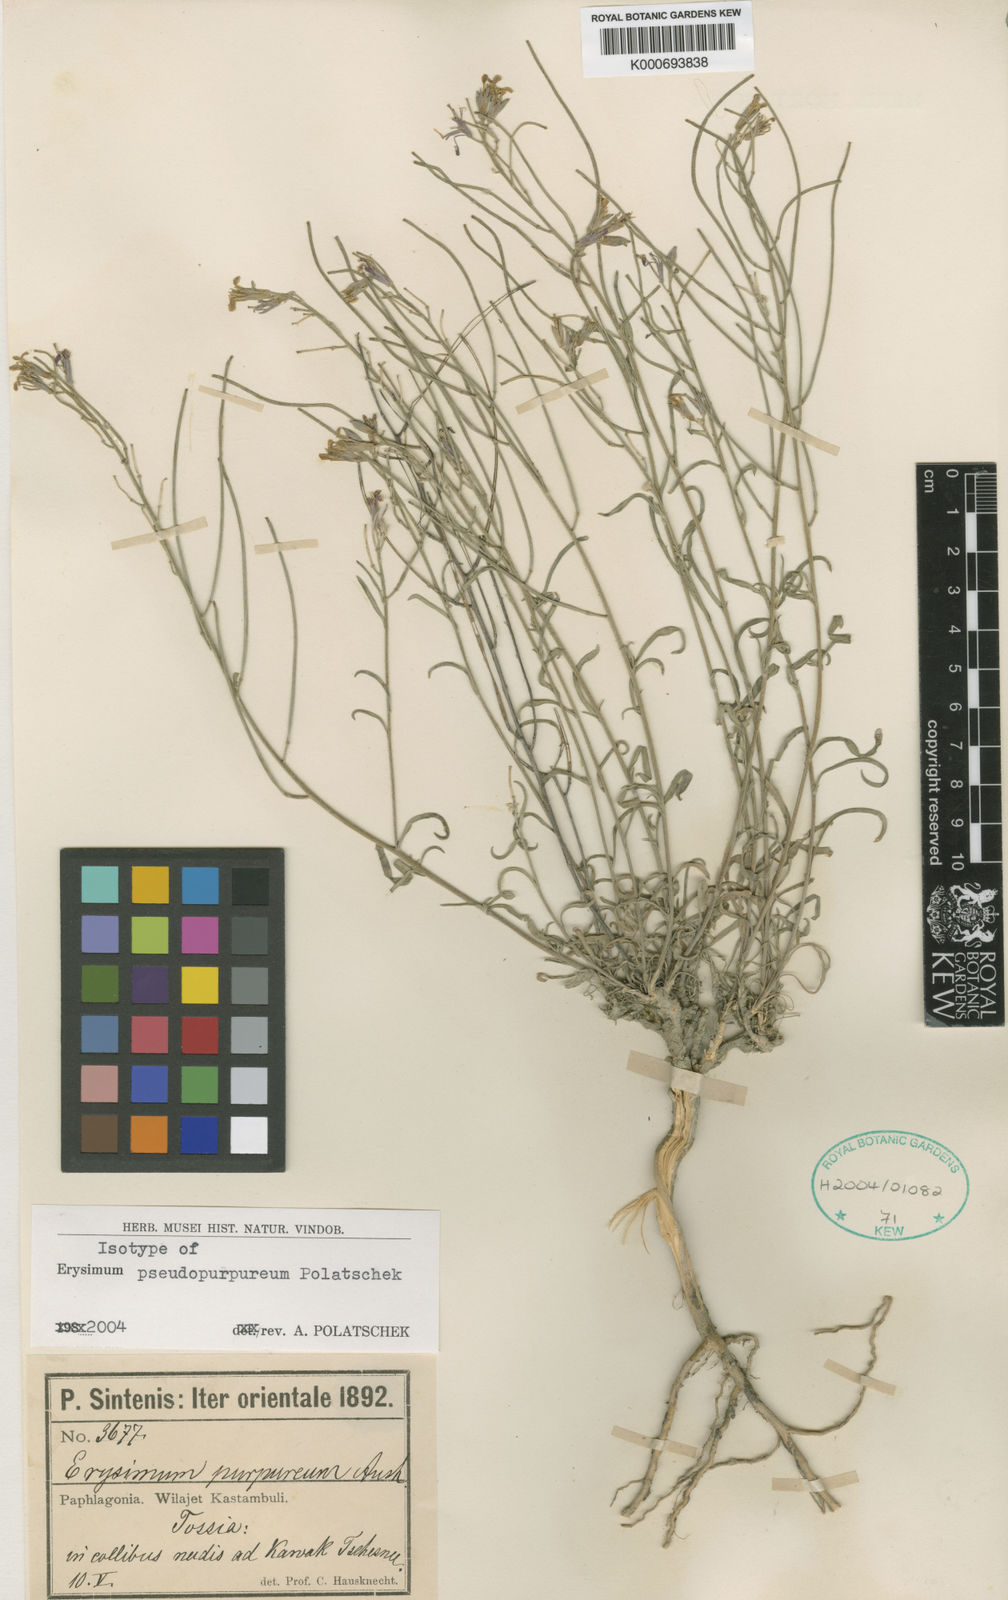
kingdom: Plantae
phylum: Tracheophyta
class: Magnoliopsida
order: Brassicales
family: Brassicaceae
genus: Erysimum
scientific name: Erysimum pseudopurpureum
